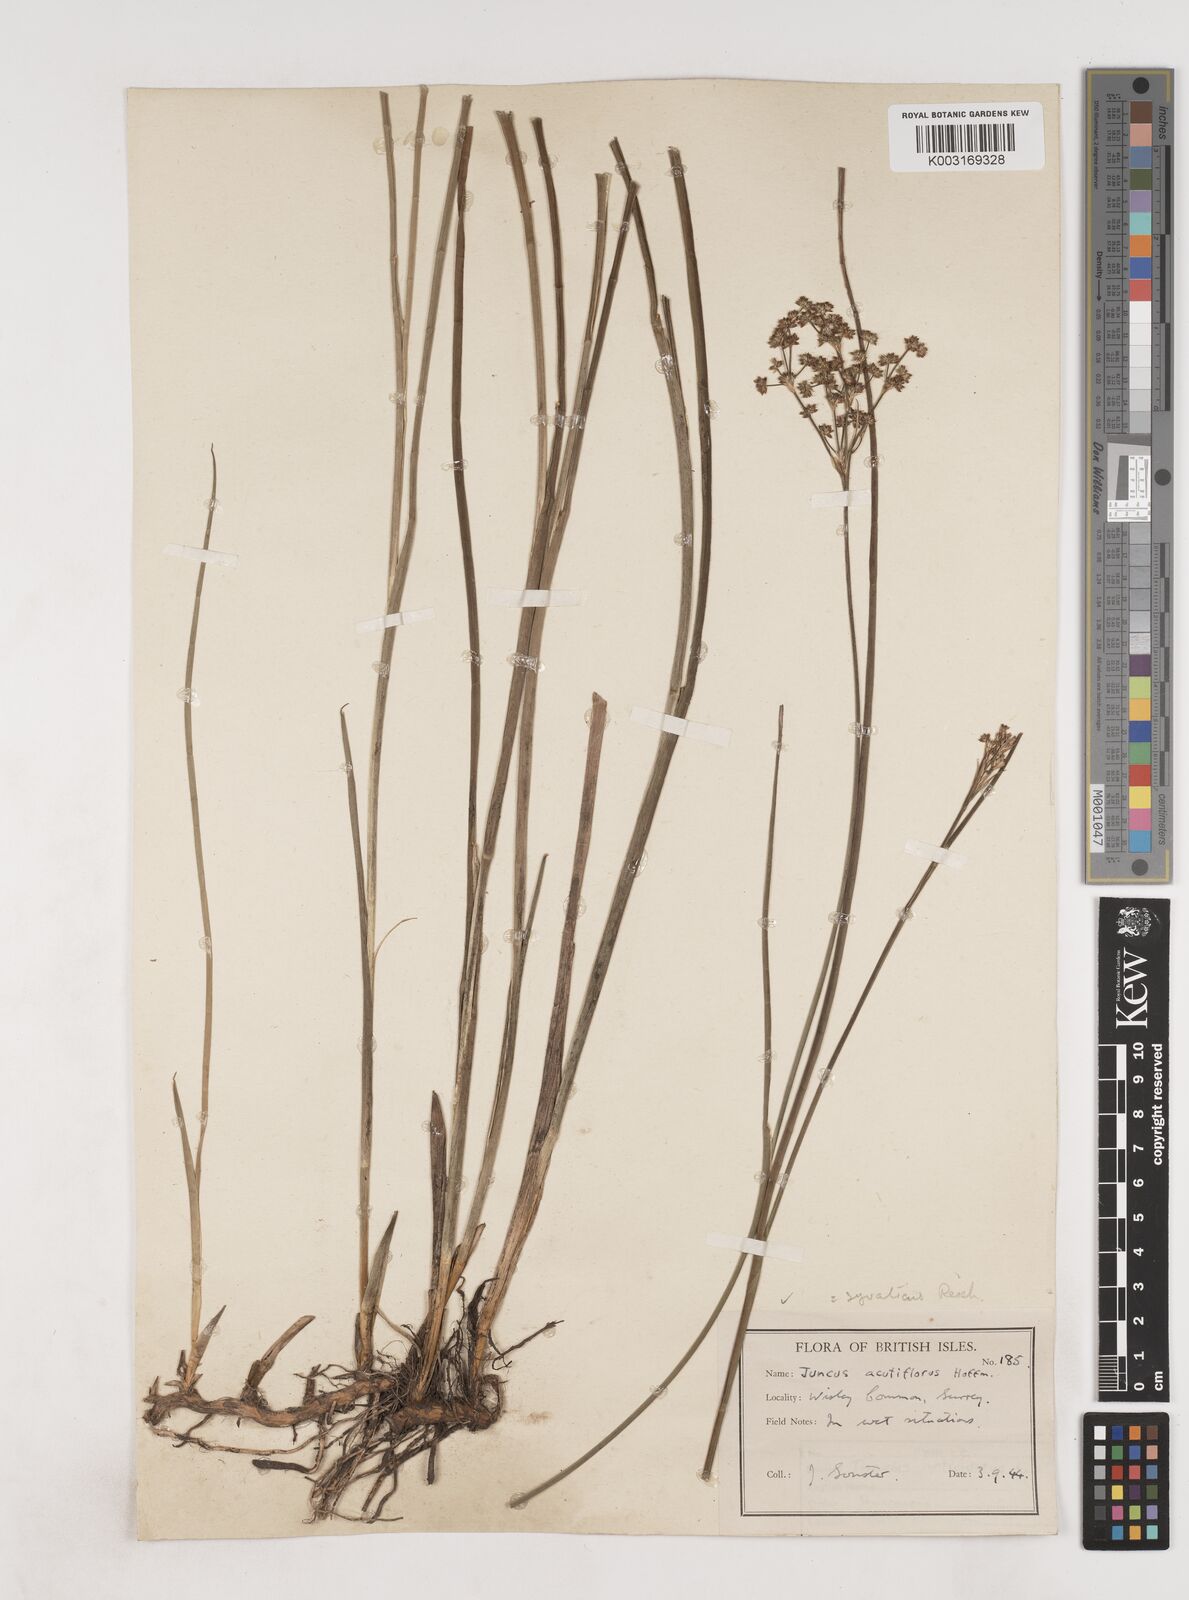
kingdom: Plantae
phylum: Tracheophyta
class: Liliopsida
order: Poales
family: Juncaceae
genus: Juncus
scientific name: Juncus acutiflorus
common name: Sharp-flowered rush
